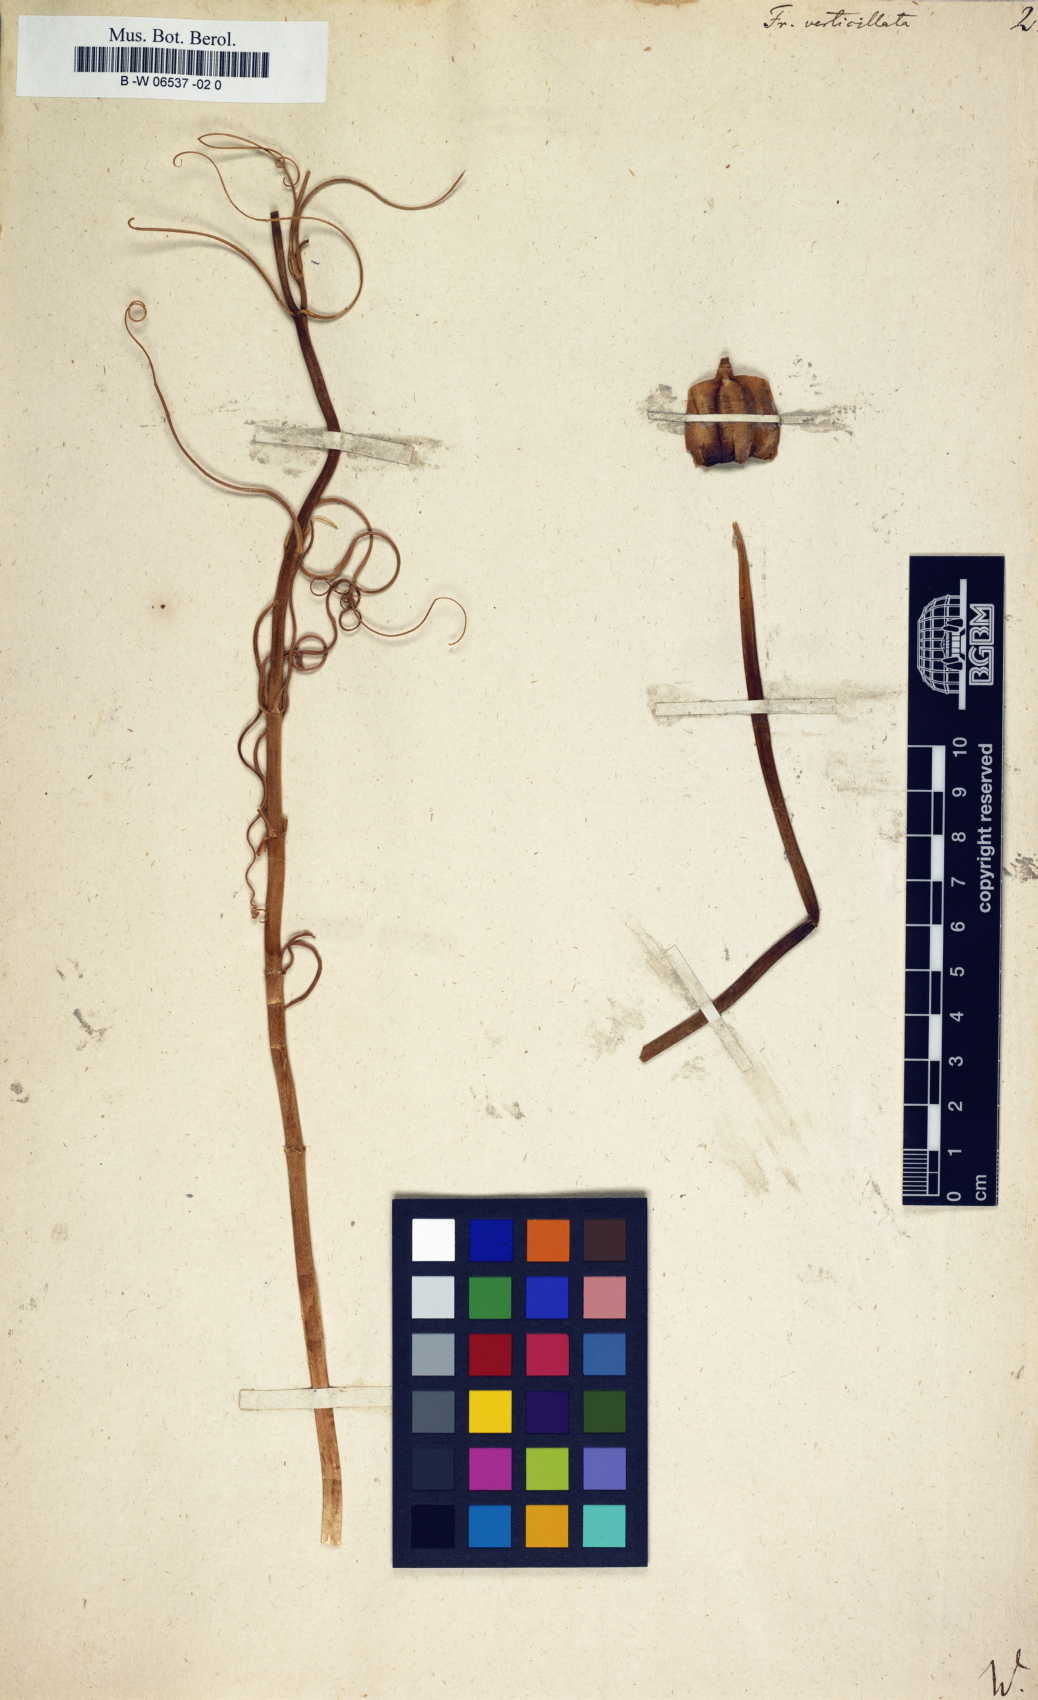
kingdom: Plantae
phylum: Tracheophyta
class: Liliopsida
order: Liliales
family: Liliaceae
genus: Fritillaria
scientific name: Fritillaria verticillata
